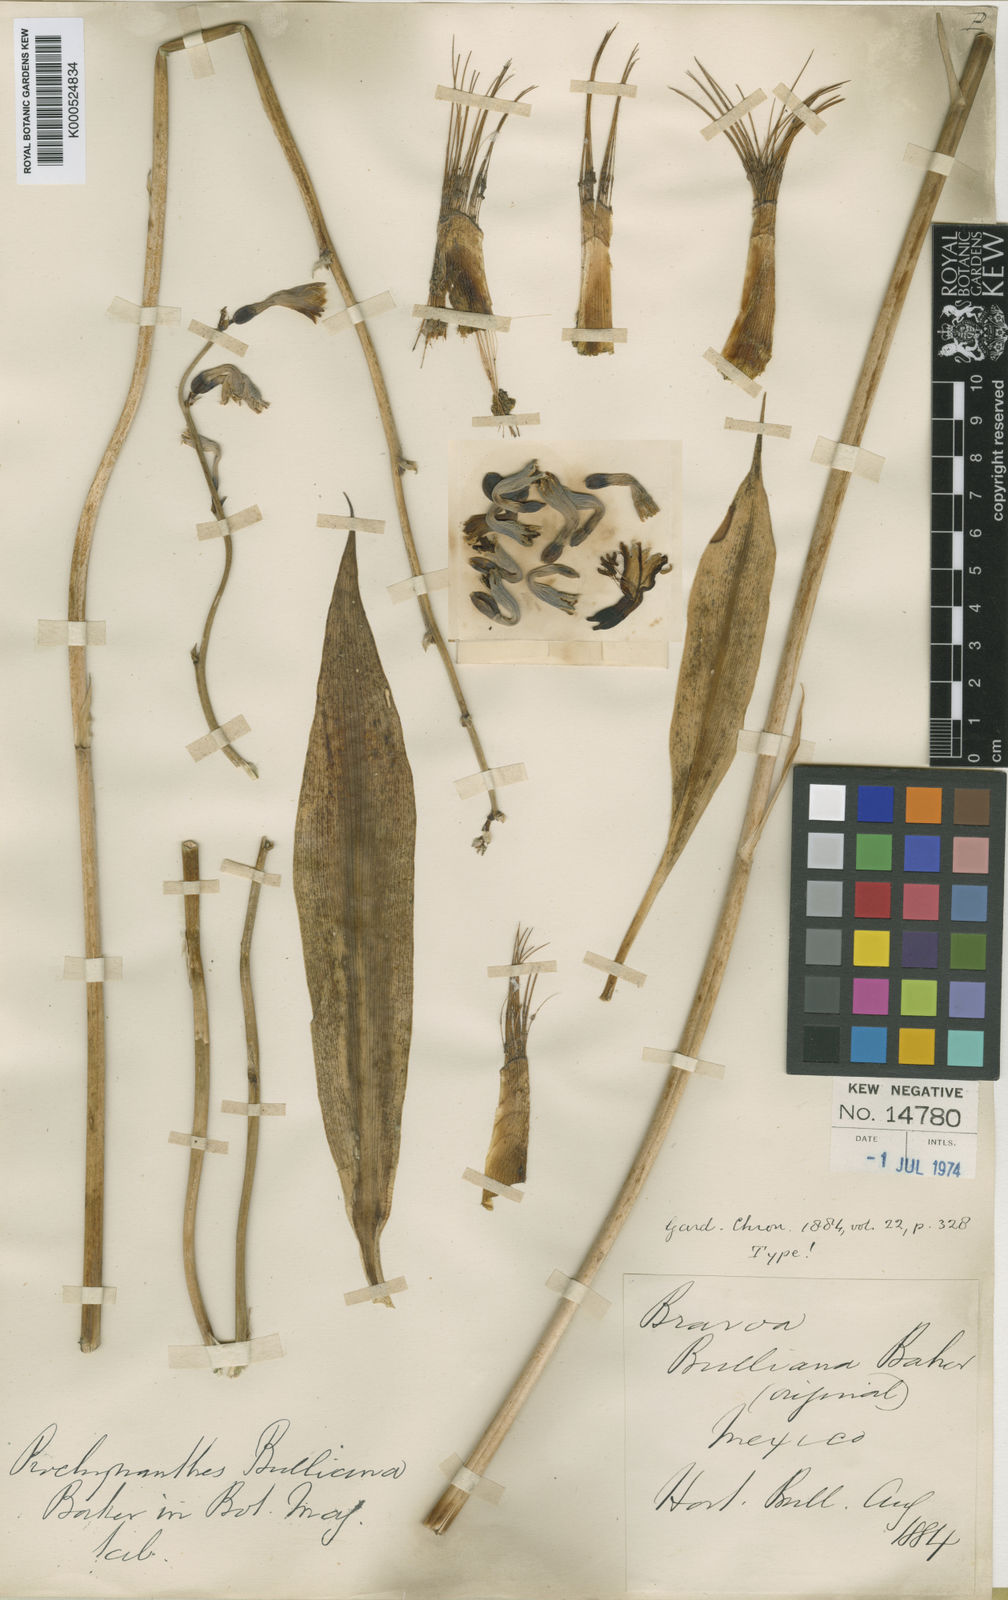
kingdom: Plantae
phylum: Tracheophyta
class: Liliopsida
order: Asparagales
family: Asparagaceae
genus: Agave
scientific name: Agave bulliana
